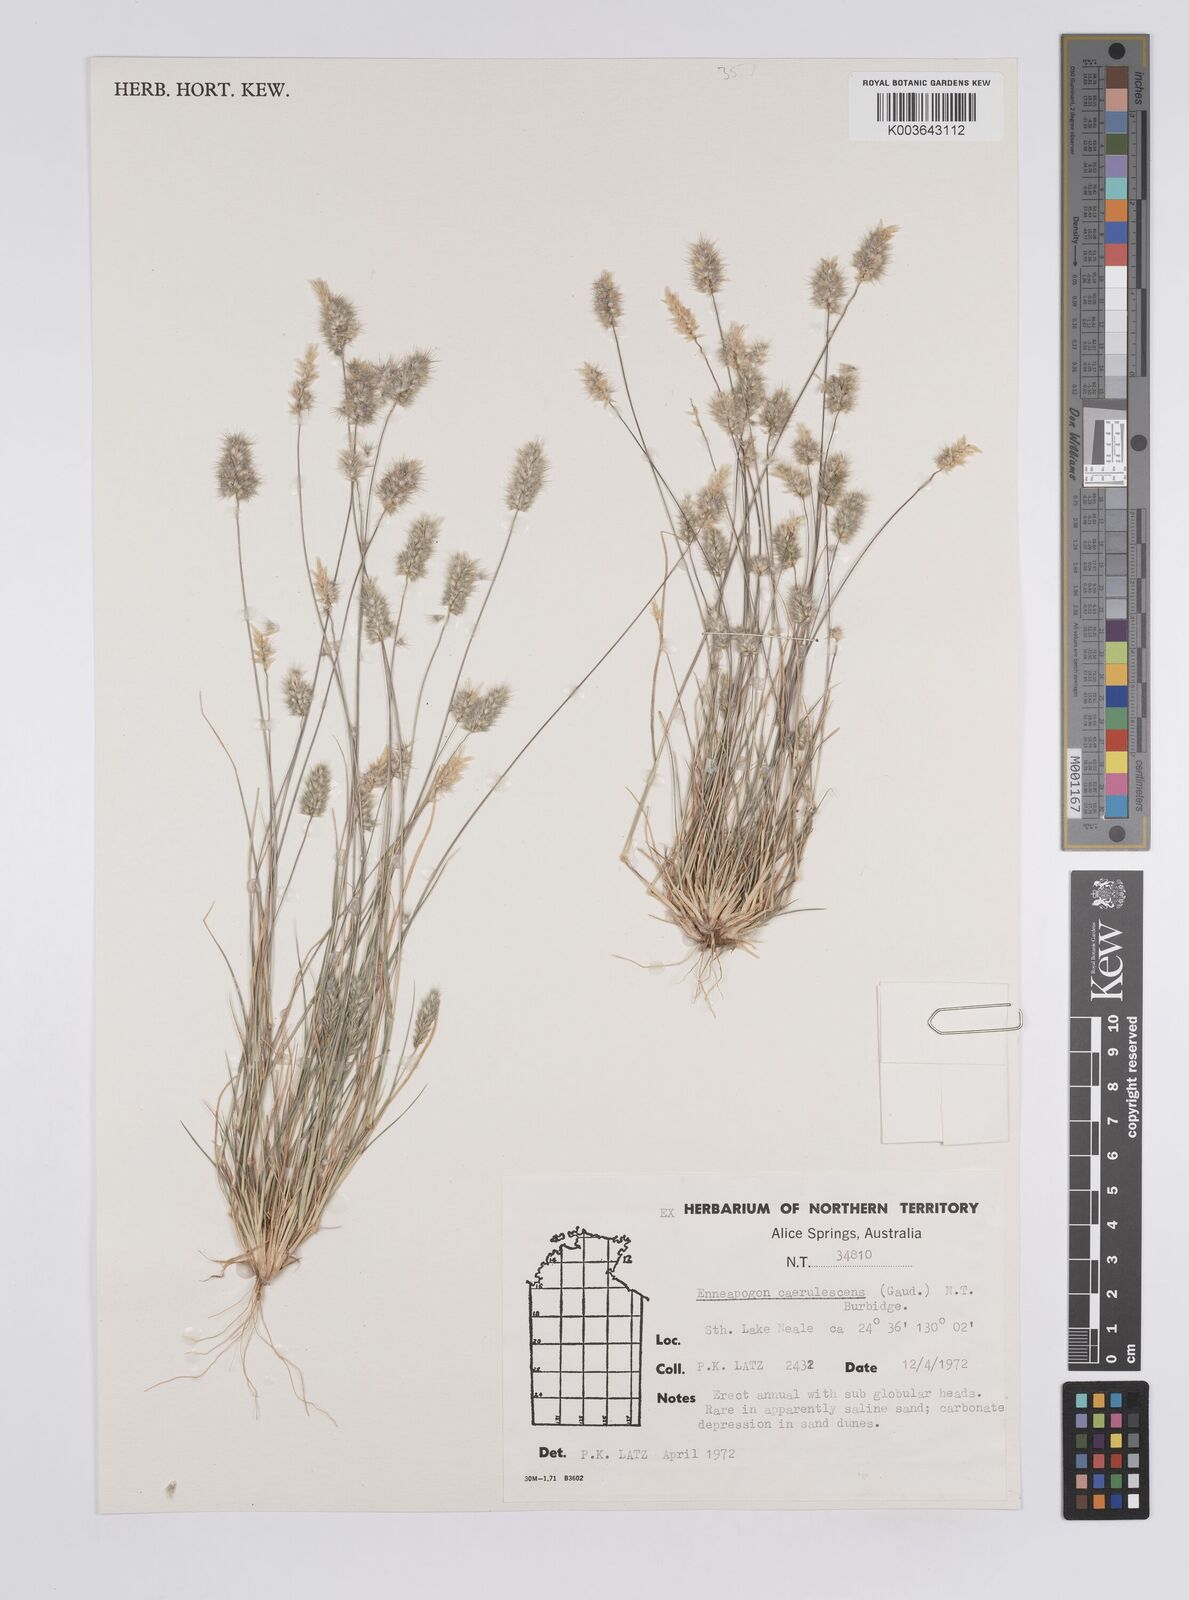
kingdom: Plantae
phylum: Tracheophyta
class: Liliopsida
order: Poales
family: Poaceae
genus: Enneapogon
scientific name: Enneapogon caerulescens
